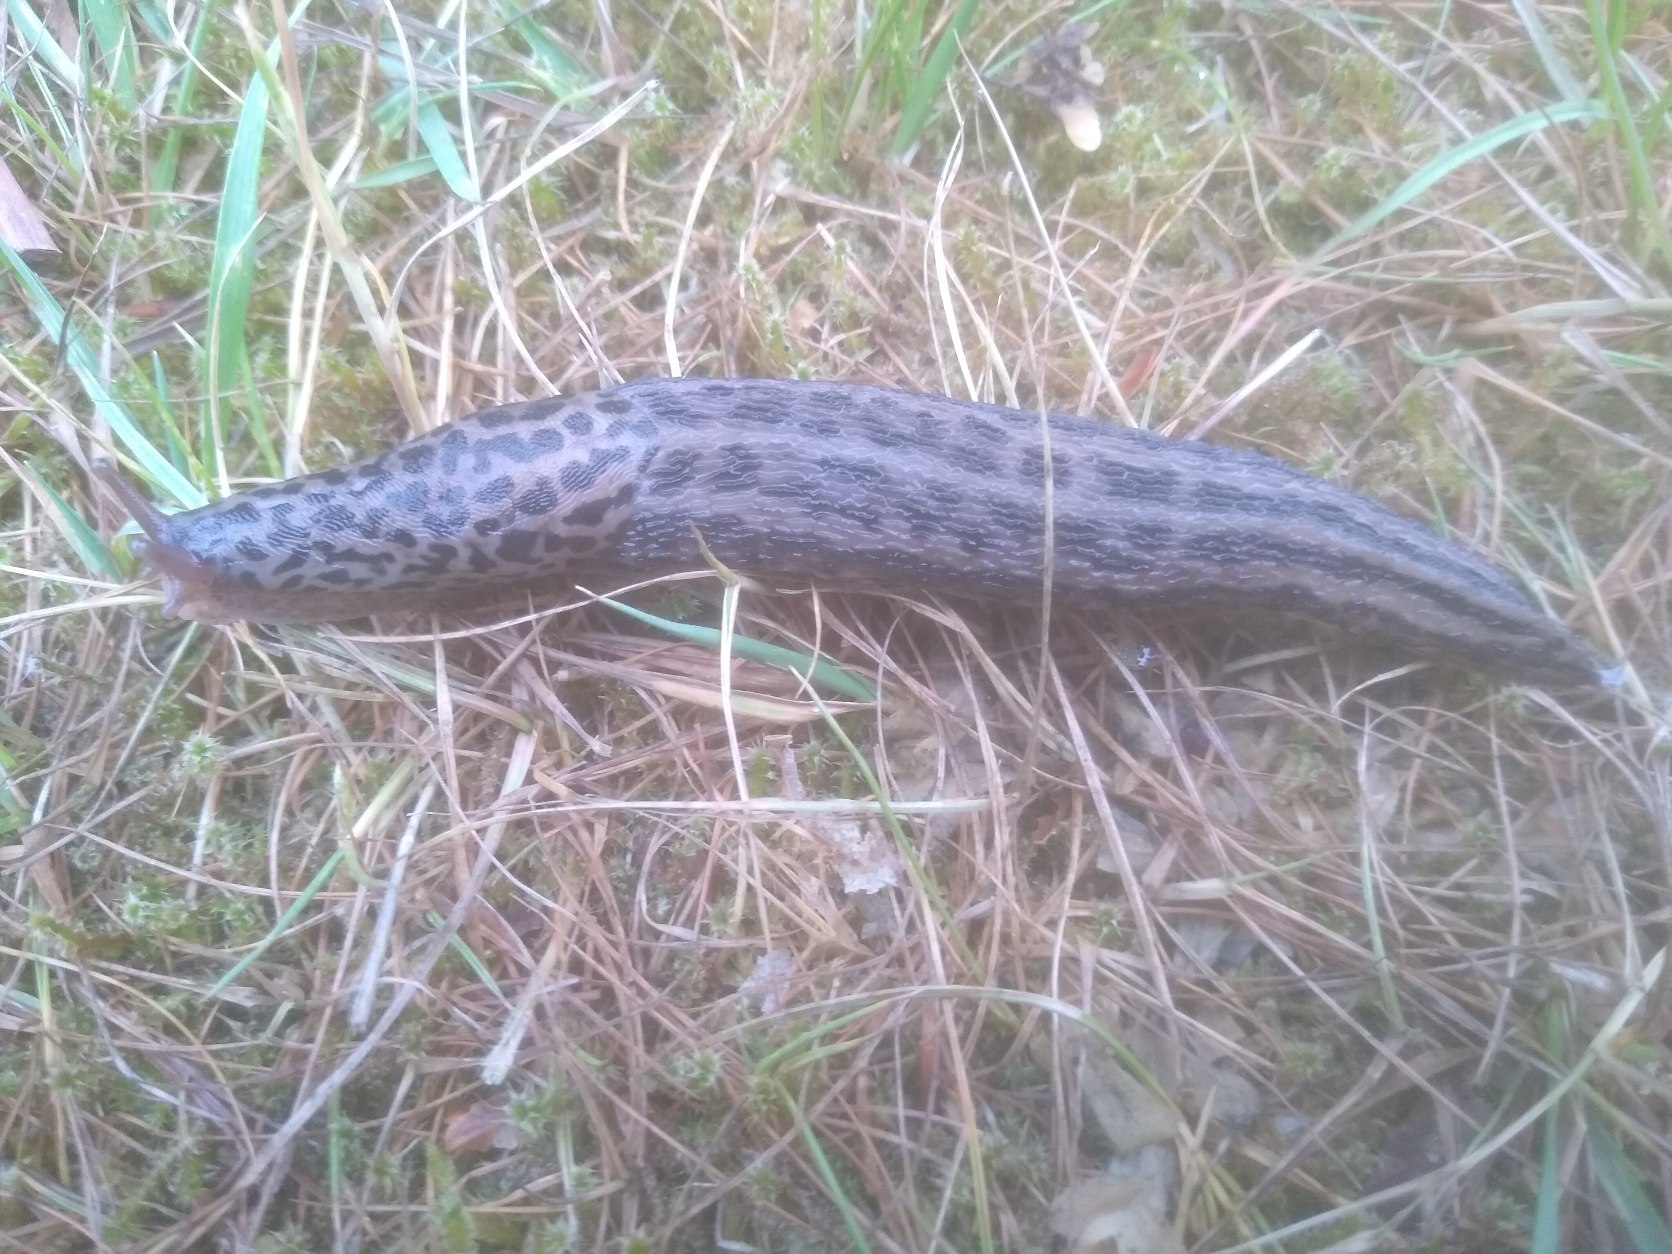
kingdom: Animalia
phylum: Mollusca
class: Gastropoda
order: Stylommatophora
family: Limacidae
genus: Limax
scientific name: Limax maximus
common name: Pantersnegl
